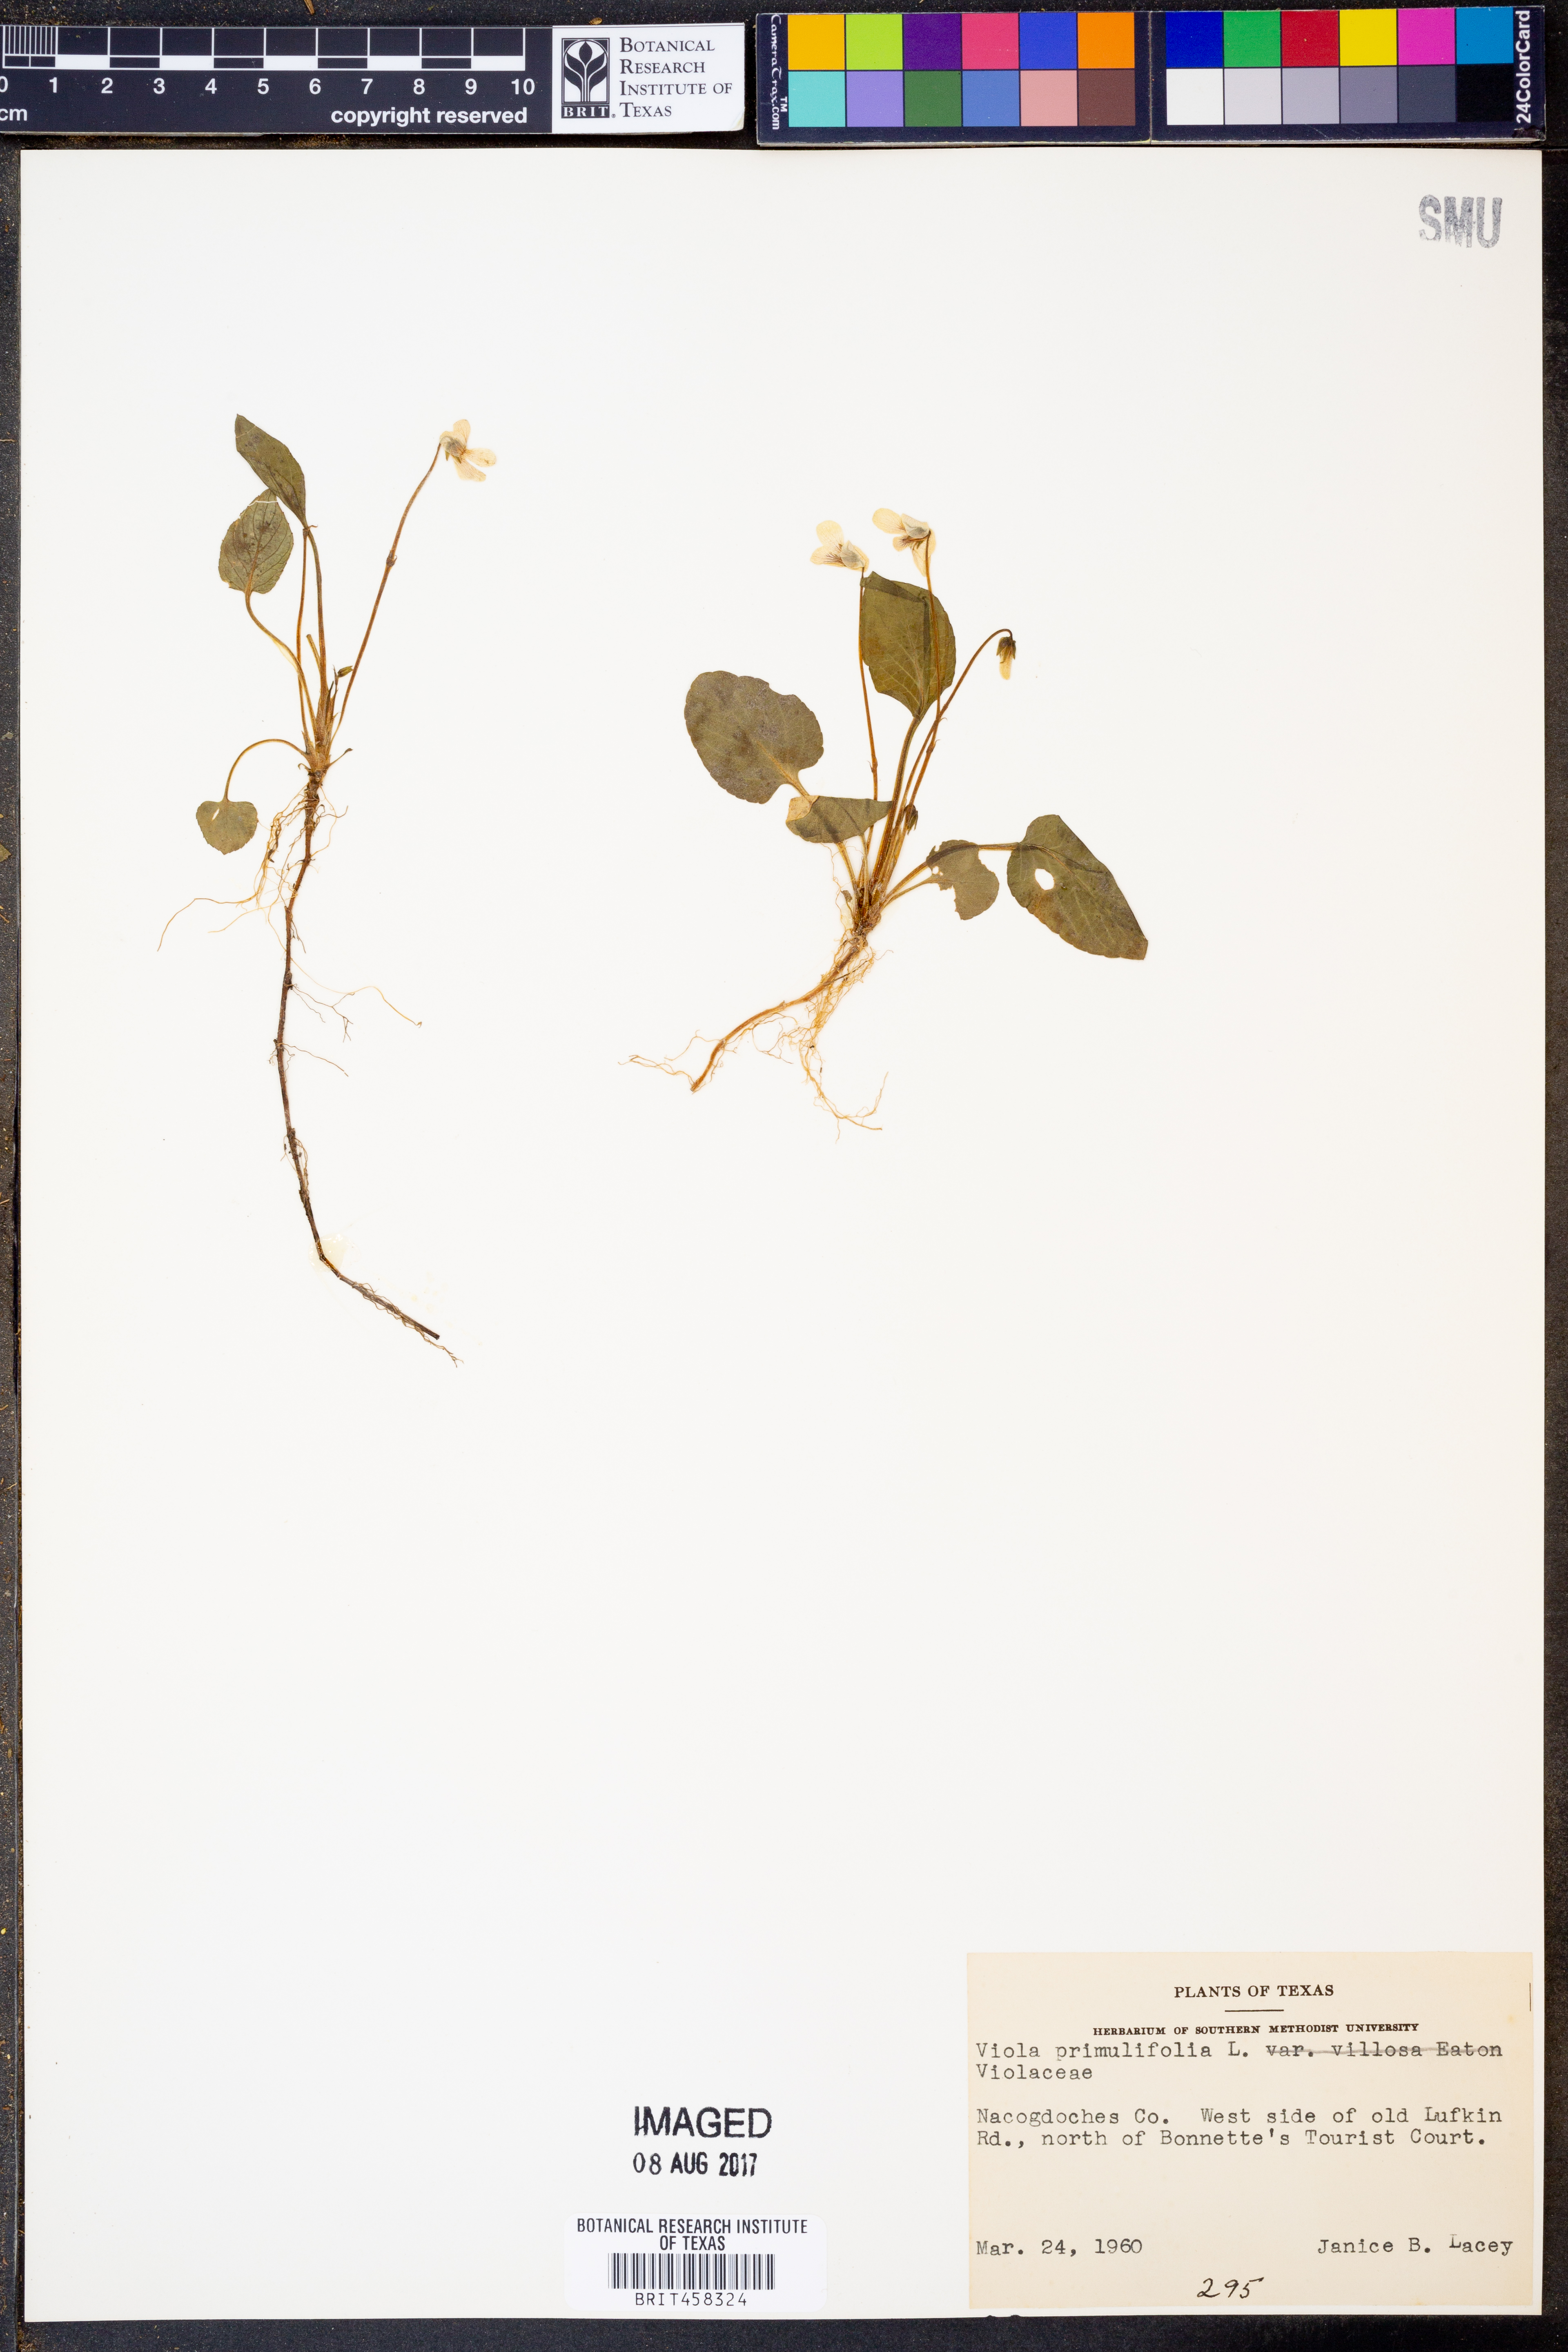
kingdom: Plantae
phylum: Tracheophyta
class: Magnoliopsida
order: Malpighiales
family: Violaceae
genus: Viola
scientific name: Viola primulifolia
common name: Primrose-leaf violet
